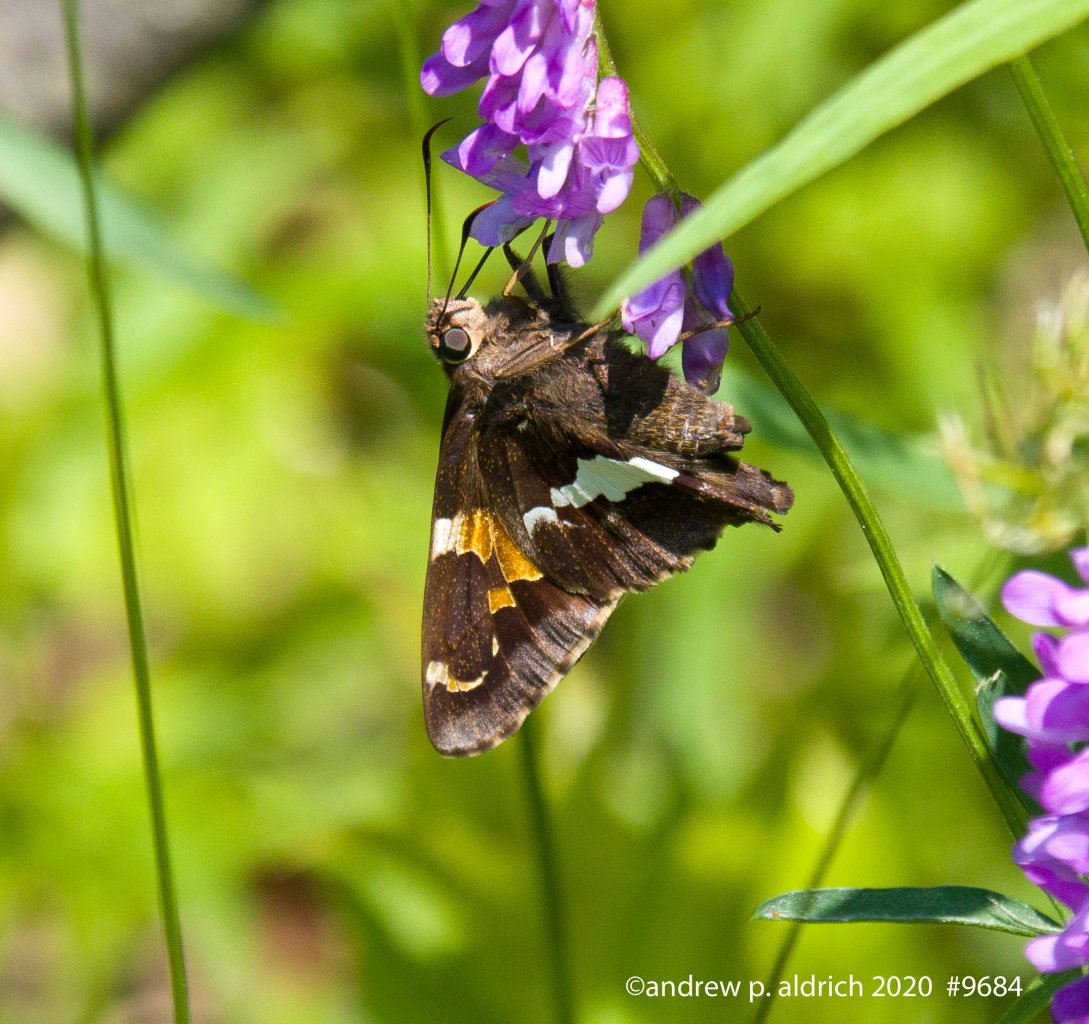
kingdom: Animalia
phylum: Arthropoda
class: Insecta
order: Lepidoptera
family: Hesperiidae
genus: Epargyreus
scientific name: Epargyreus clarus
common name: Silver-spotted Skipper
